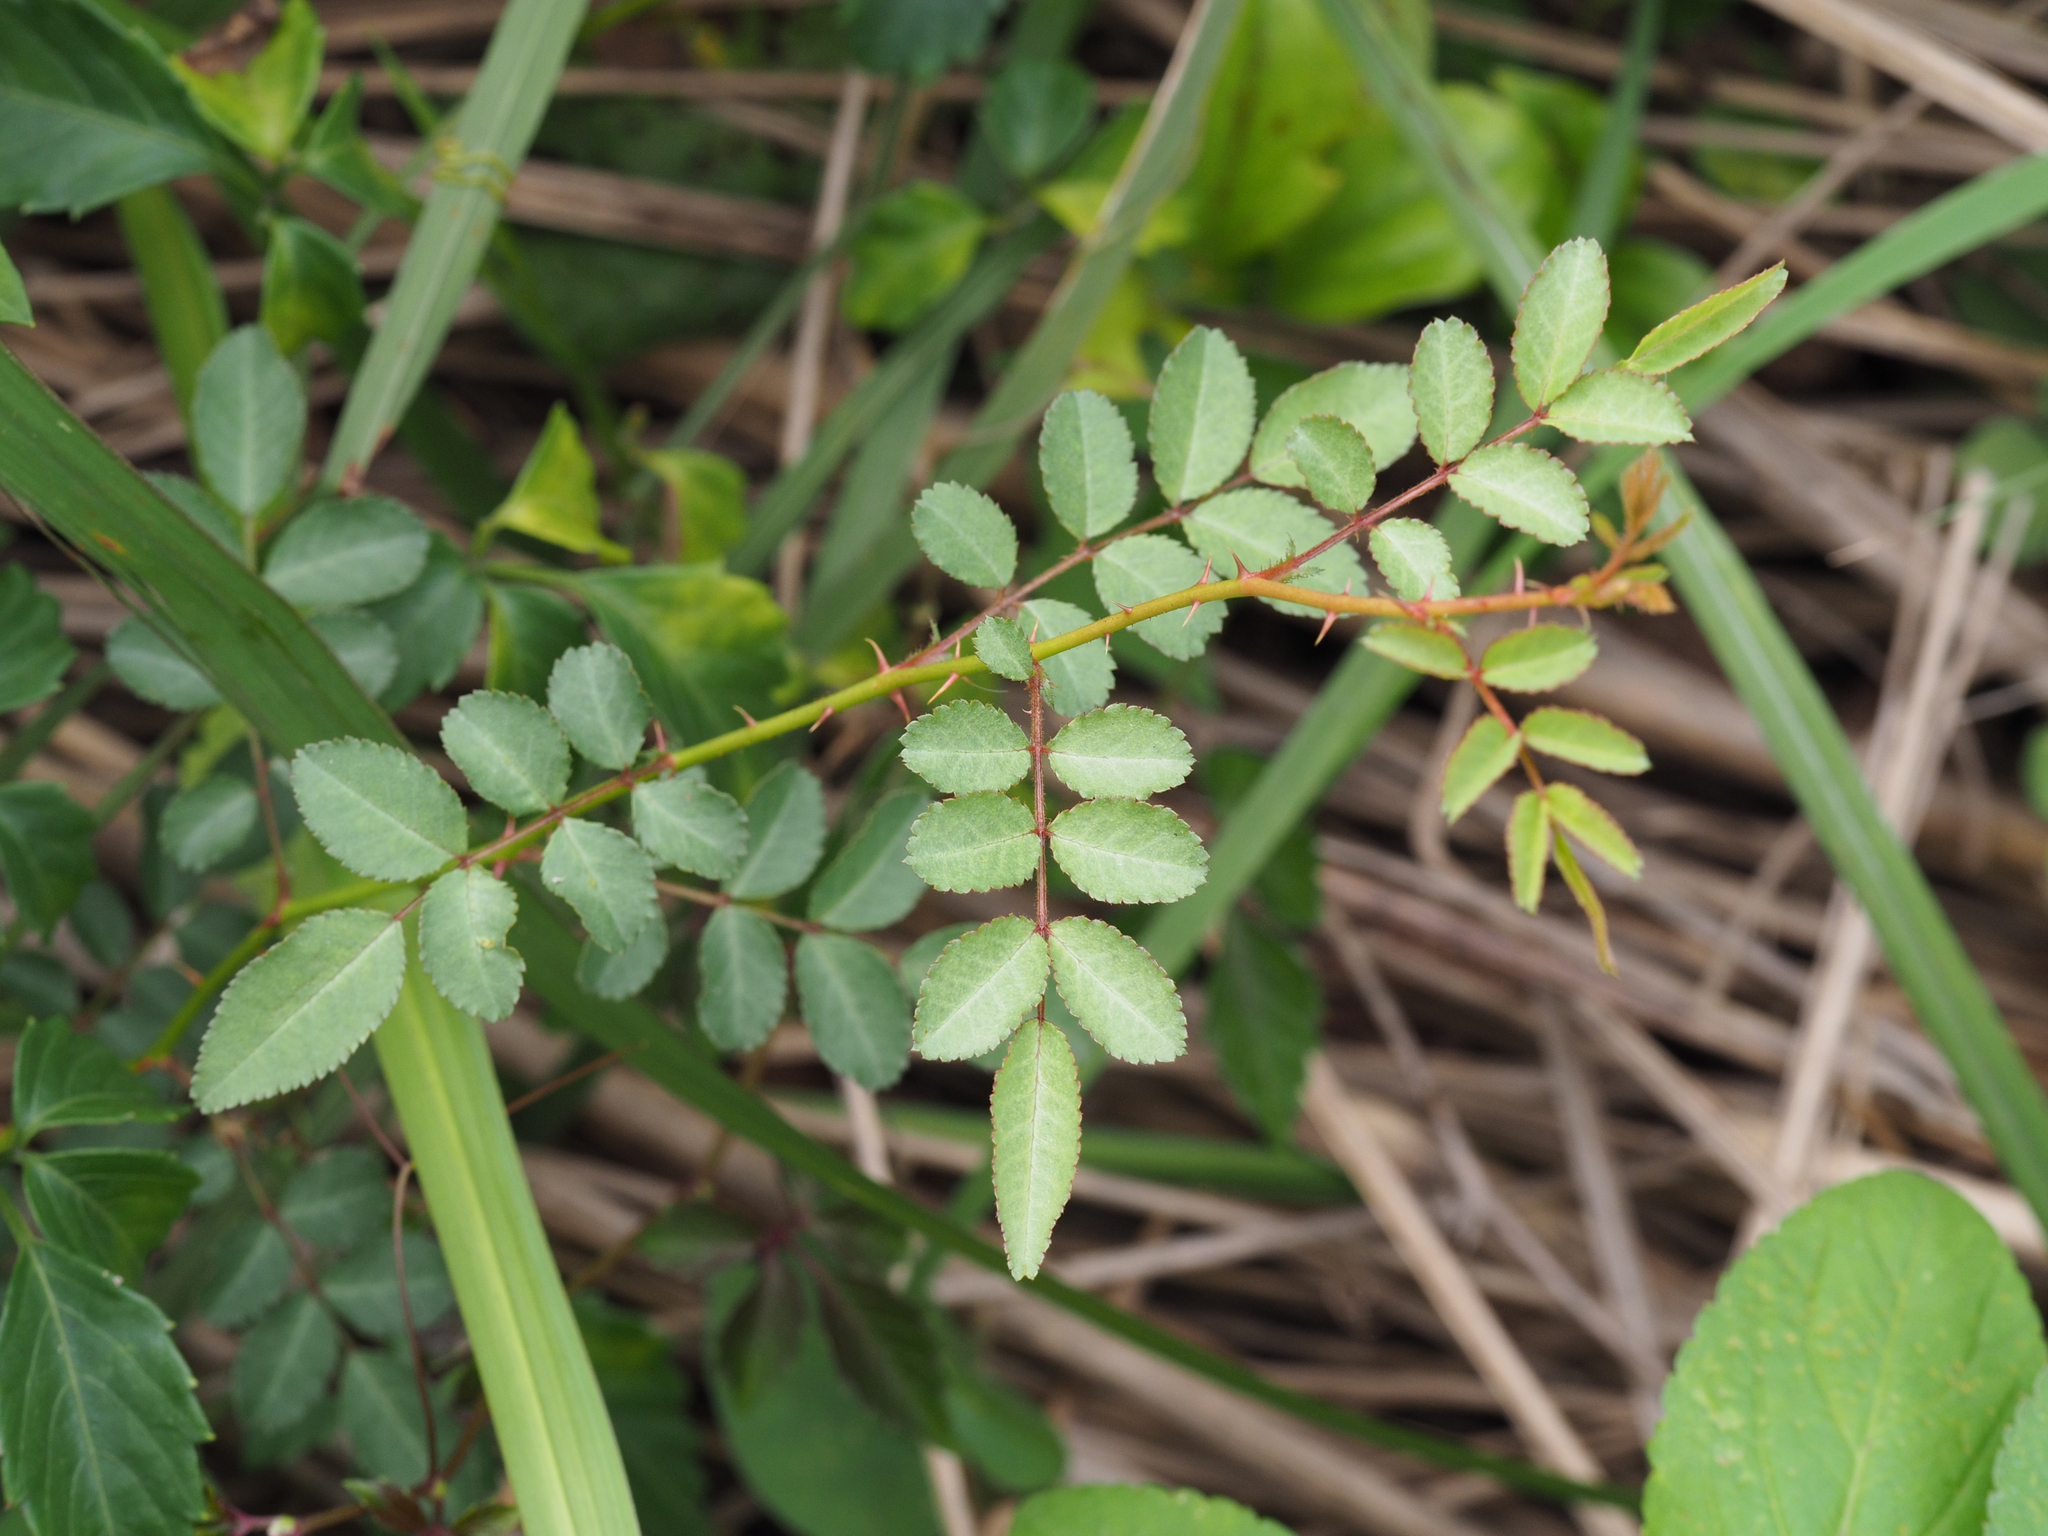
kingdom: Plantae
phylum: Tracheophyta
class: Magnoliopsida
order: Rosales
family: Rosaceae
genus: Rosa
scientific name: Rosa bracteata
